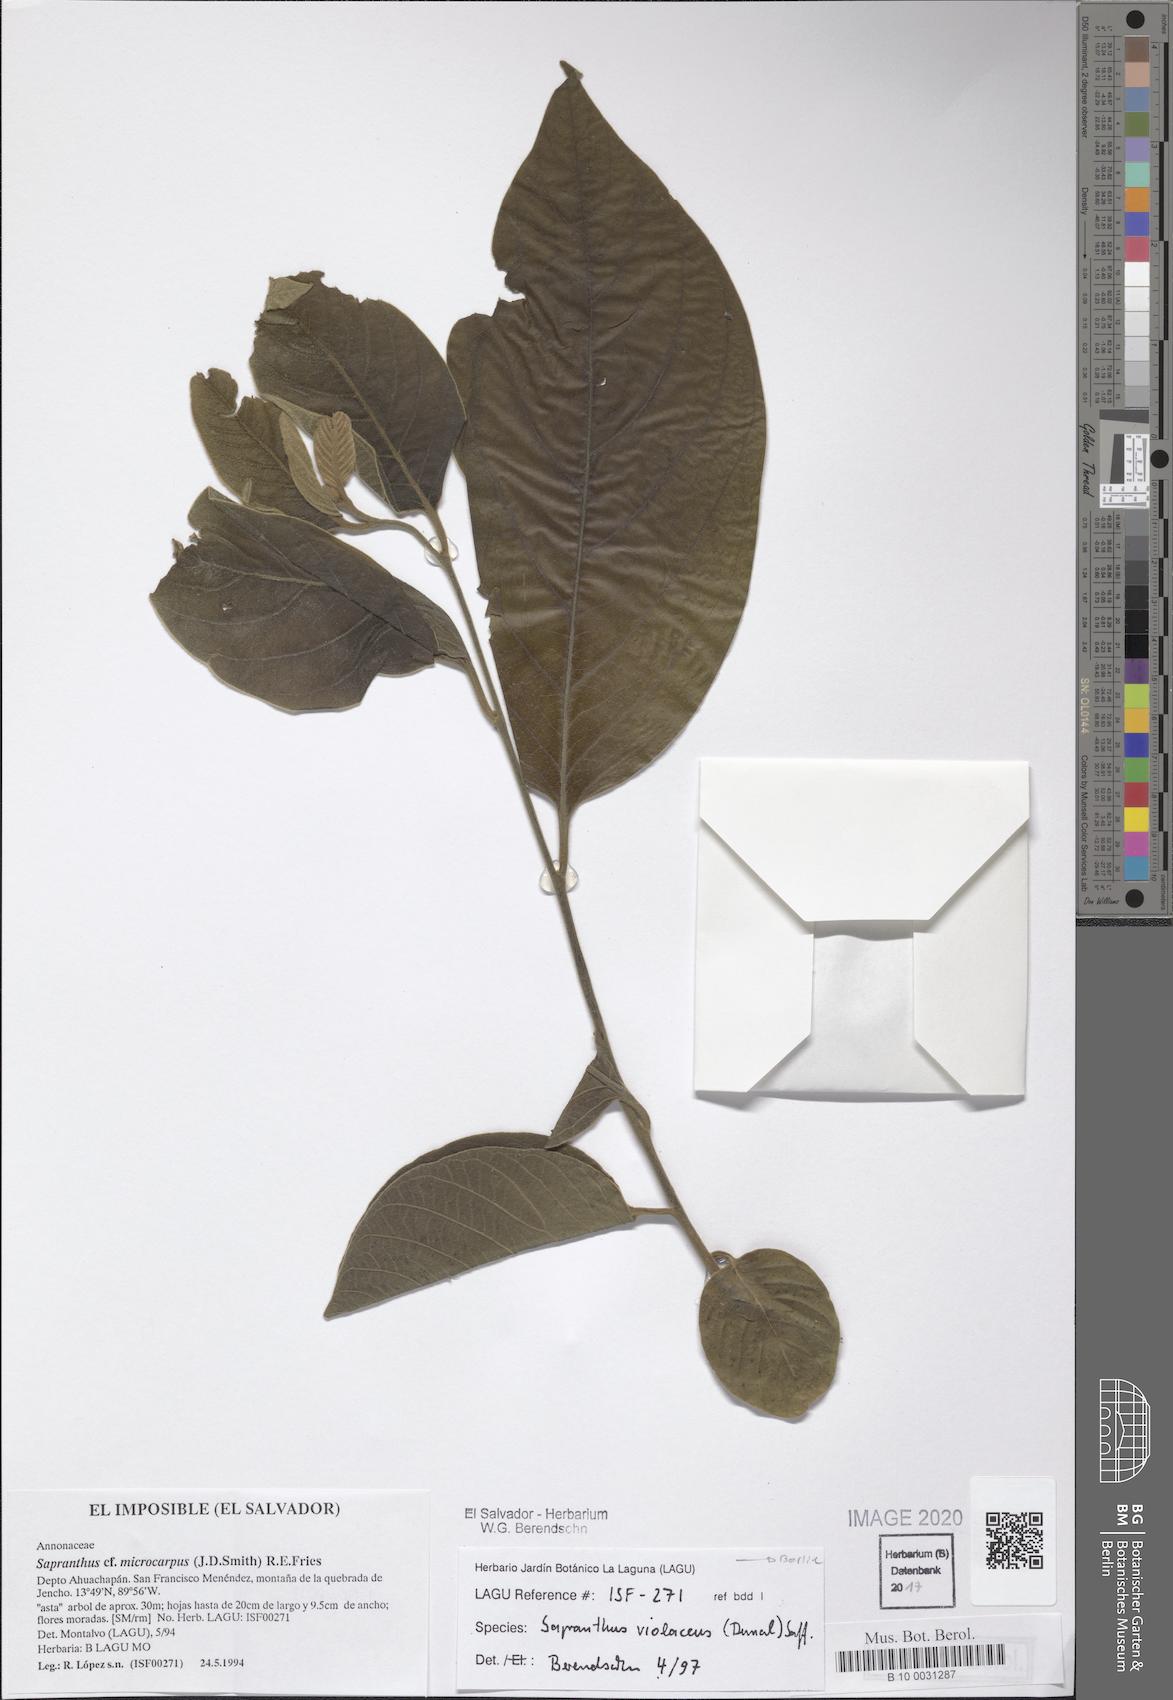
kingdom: Plantae
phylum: Tracheophyta
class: Magnoliopsida
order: Magnoliales
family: Annonaceae
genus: Sapranthus
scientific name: Sapranthus violaceus
